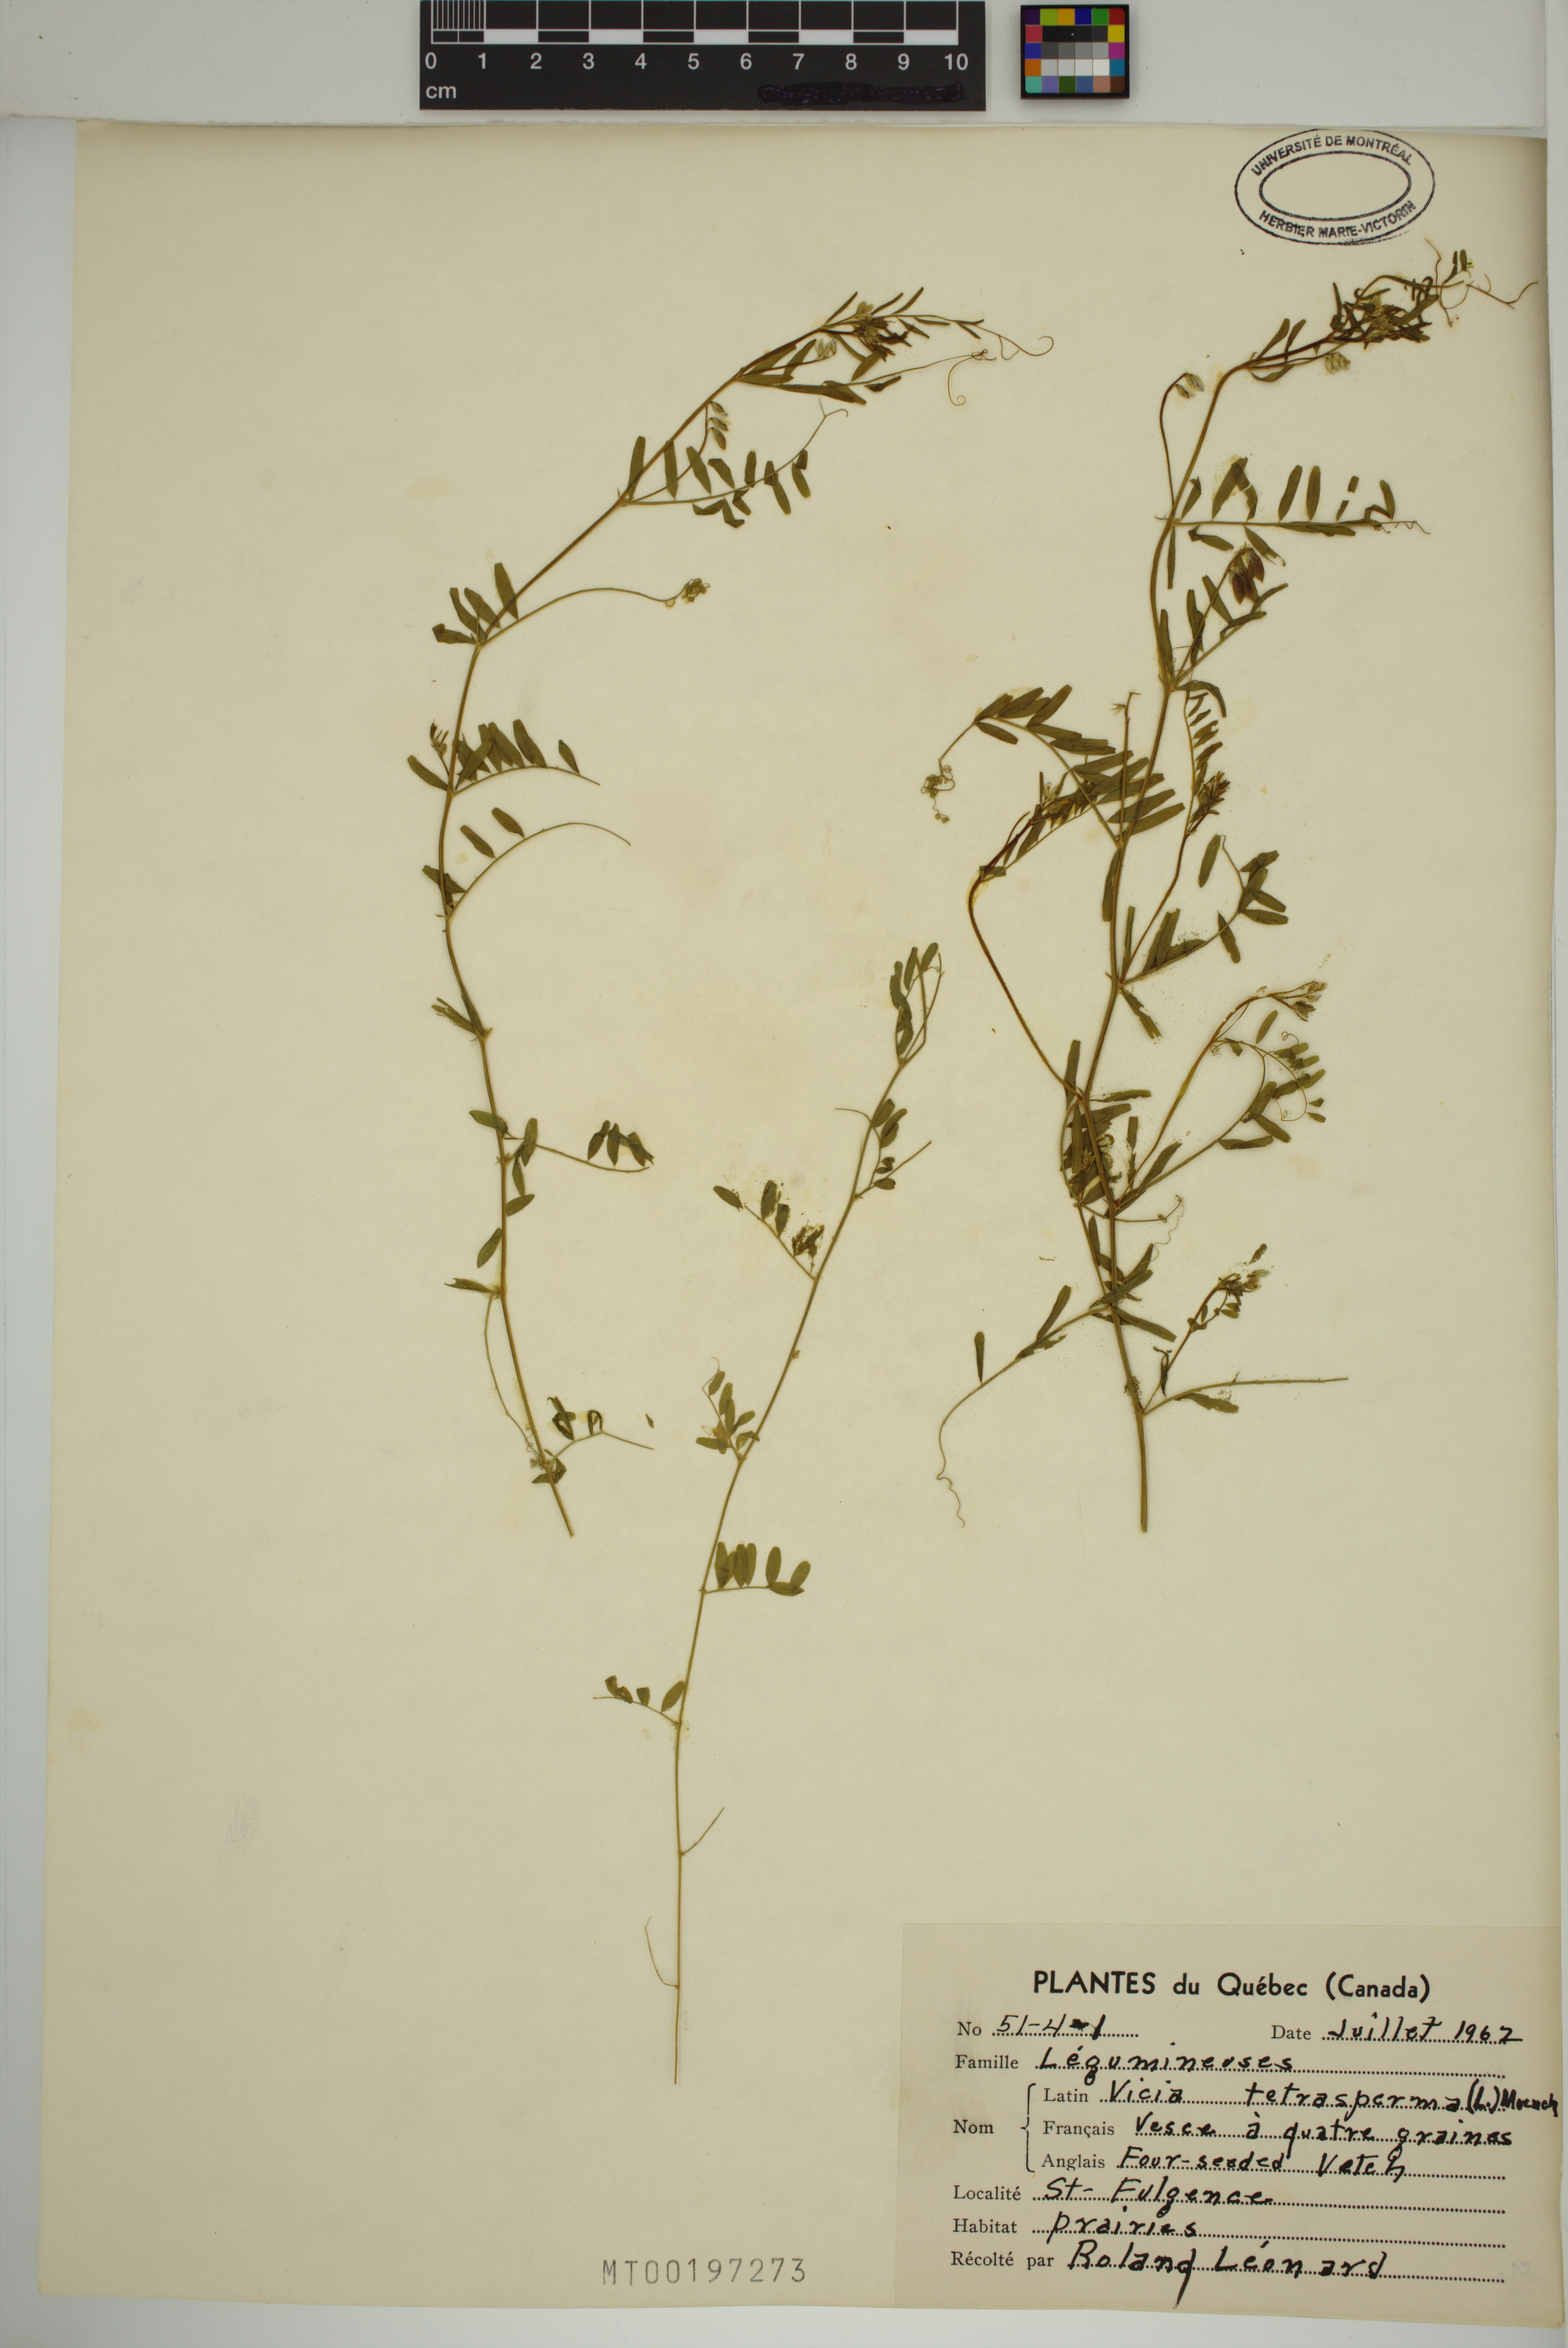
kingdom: Plantae
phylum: Tracheophyta
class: Magnoliopsida
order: Fabales
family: Fabaceae
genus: Vicia
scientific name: Vicia tetrasperma
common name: Smooth tare
